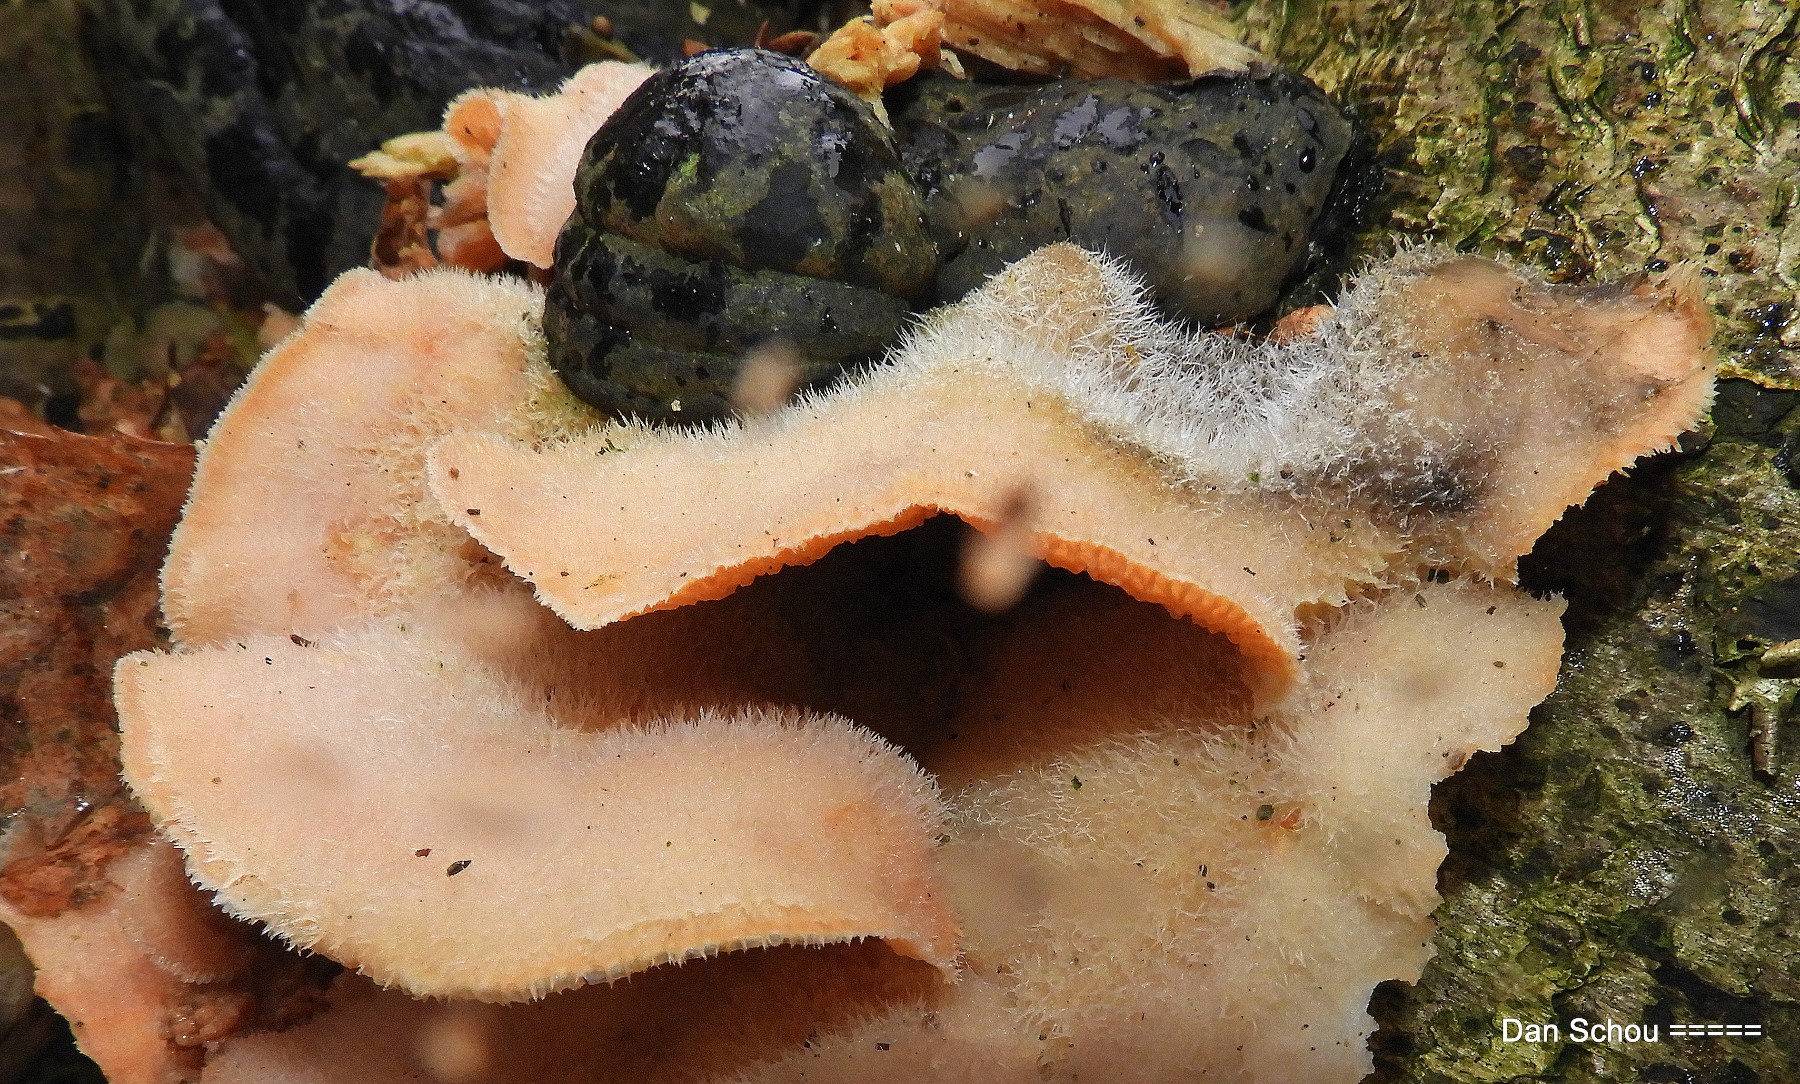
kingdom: Fungi
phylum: Basidiomycota
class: Agaricomycetes
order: Polyporales
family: Meruliaceae
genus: Phlebia
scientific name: Phlebia tremellosa
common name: bævrende åresvamp
